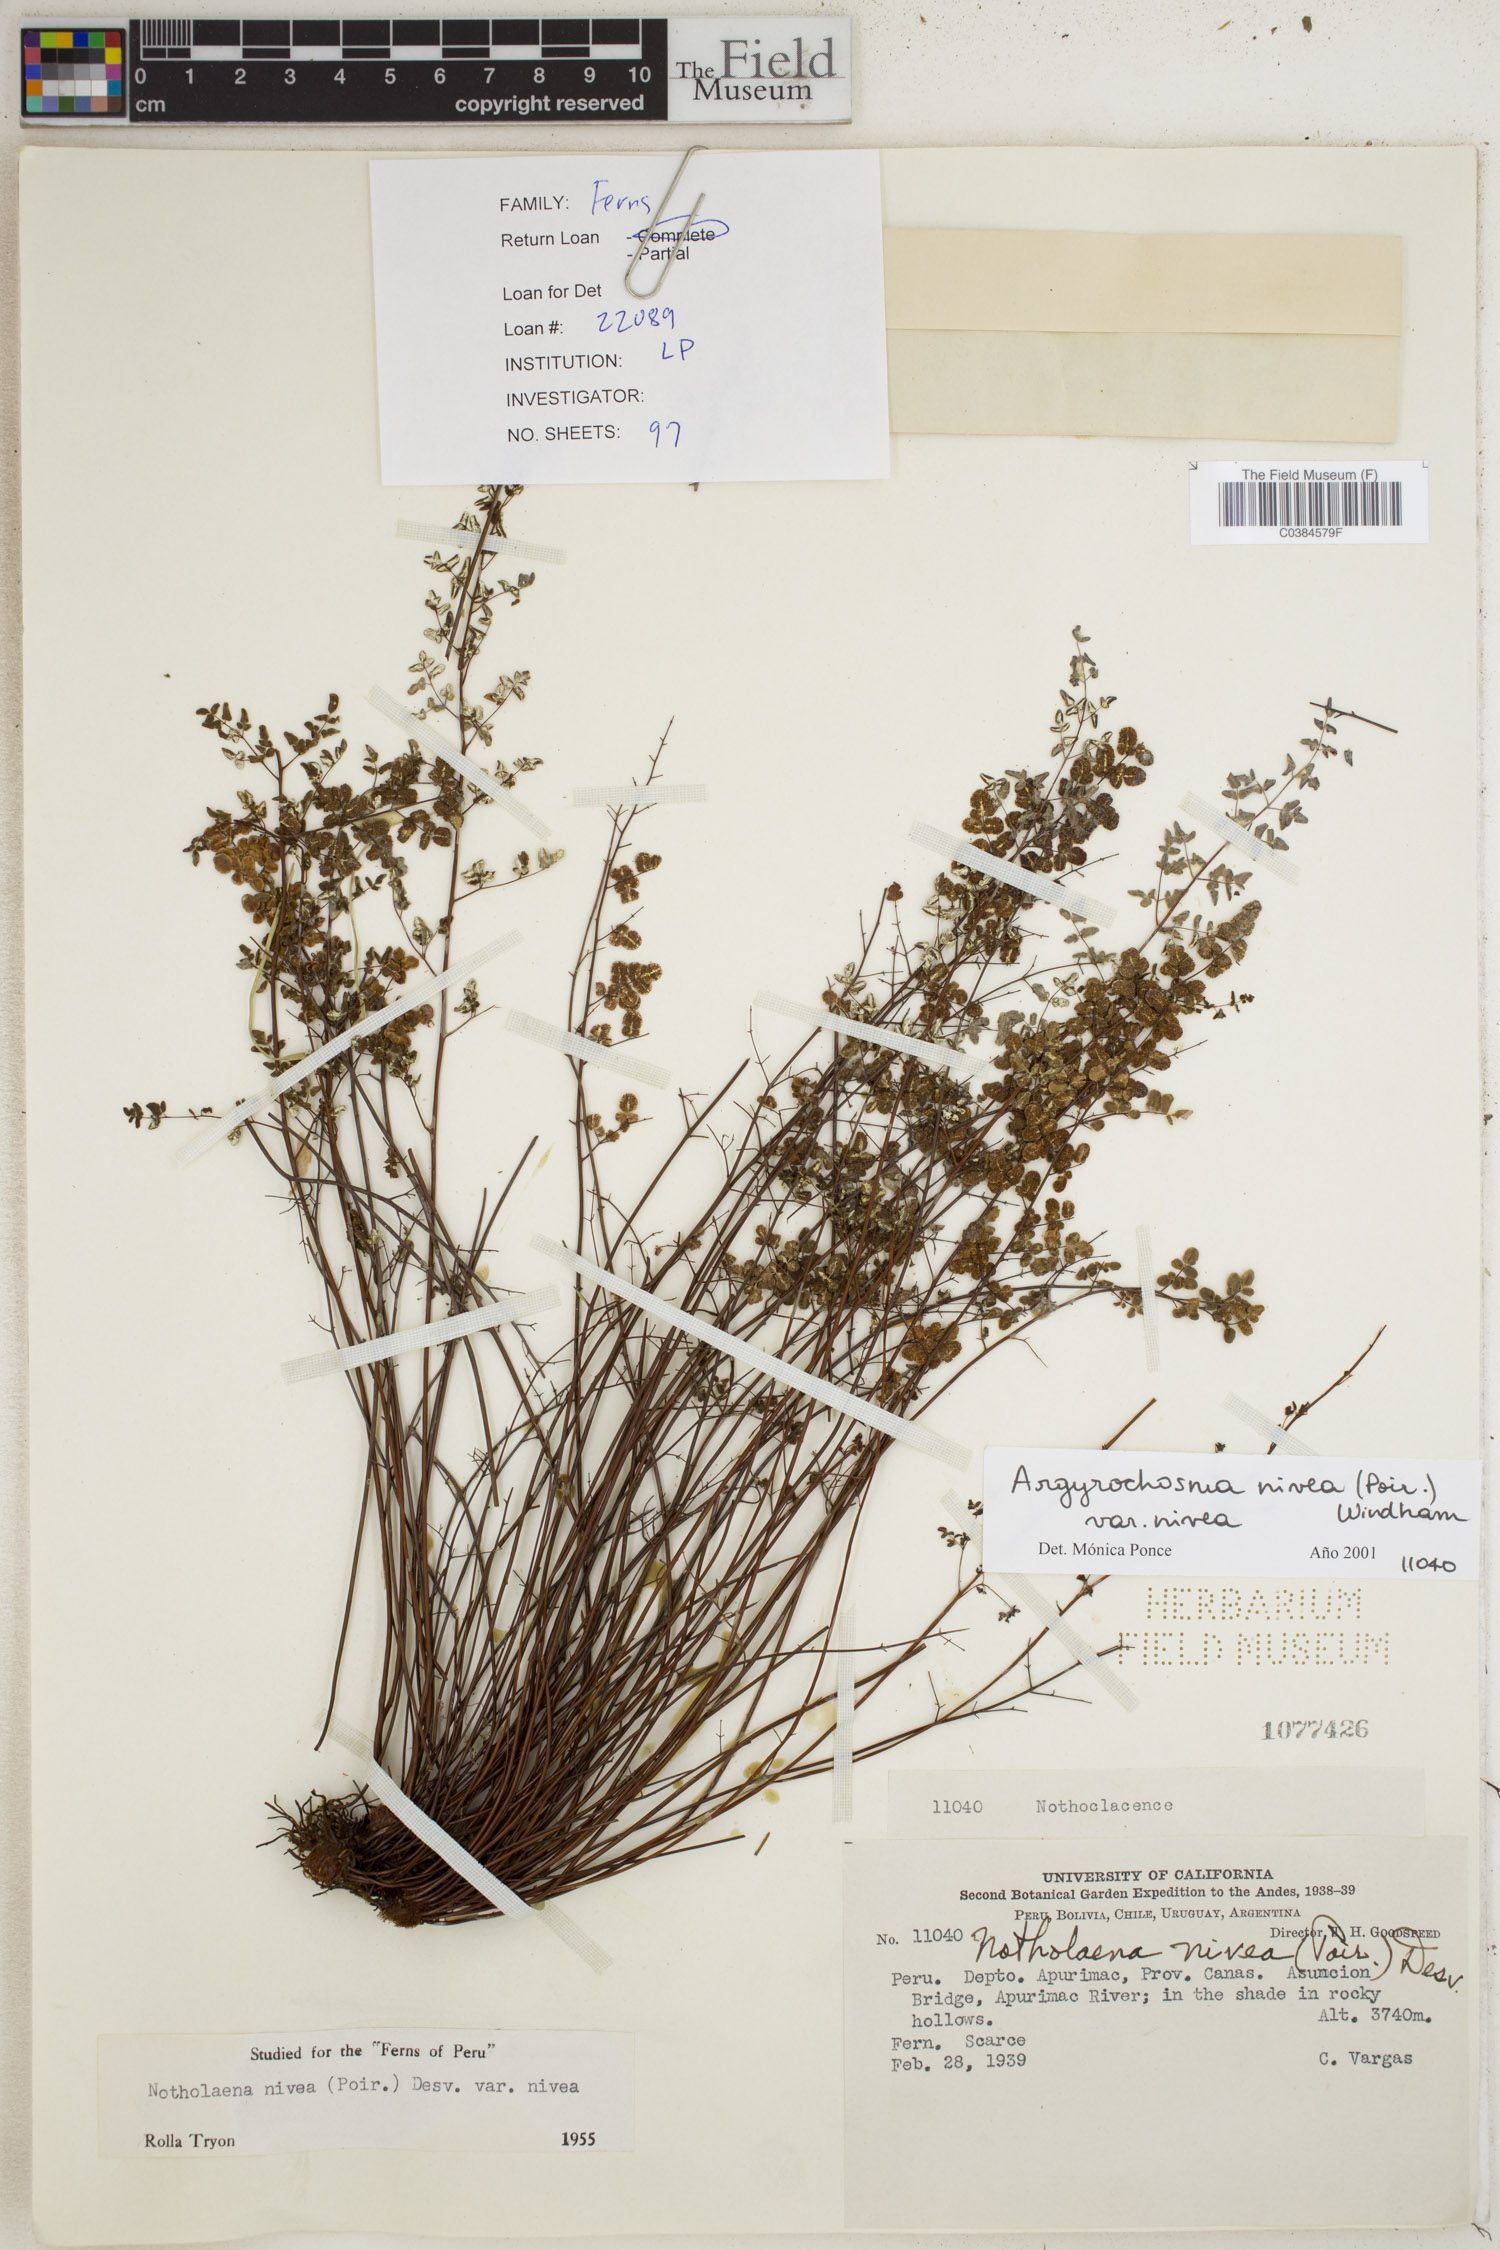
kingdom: Plantae
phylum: Tracheophyta
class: Polypodiopsida
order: Polypodiales
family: Pteridaceae
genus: Argyrochosma
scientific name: Argyrochosma nivea
